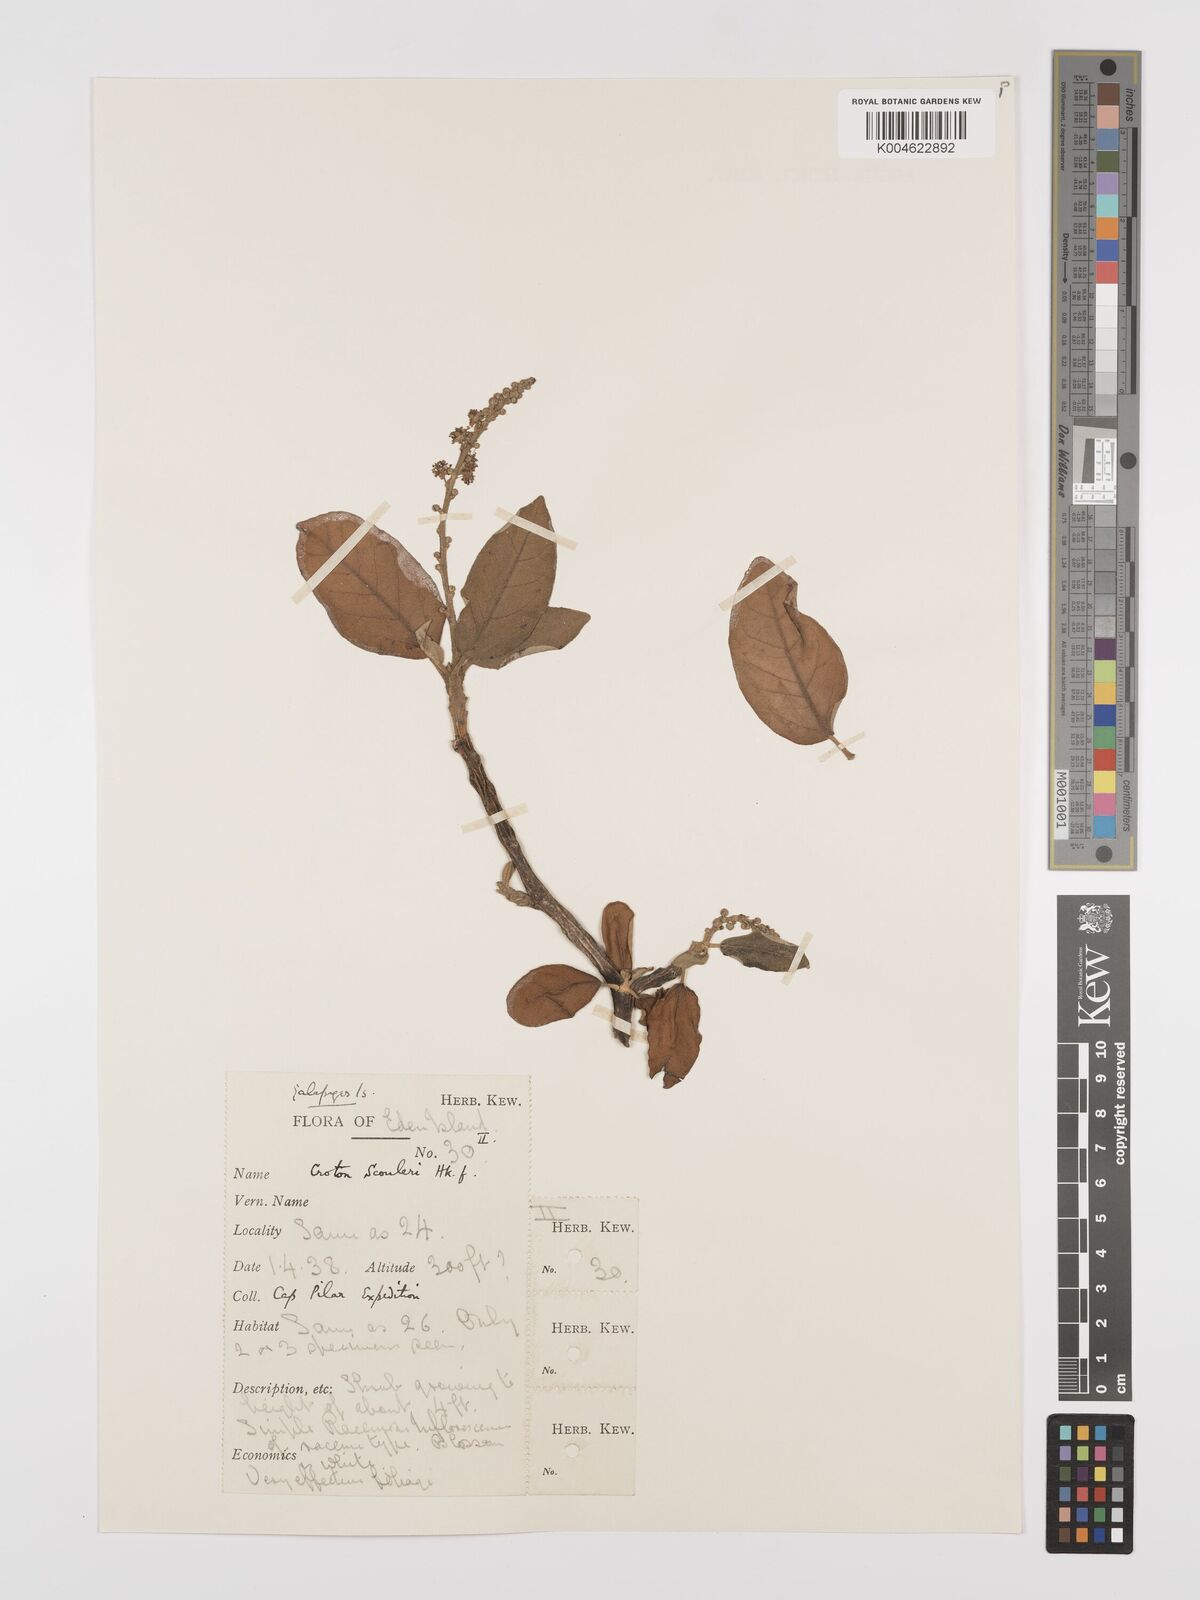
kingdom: Plantae
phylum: Tracheophyta
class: Magnoliopsida
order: Malpighiales
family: Euphorbiaceae
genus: Croton
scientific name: Croton scouleri
